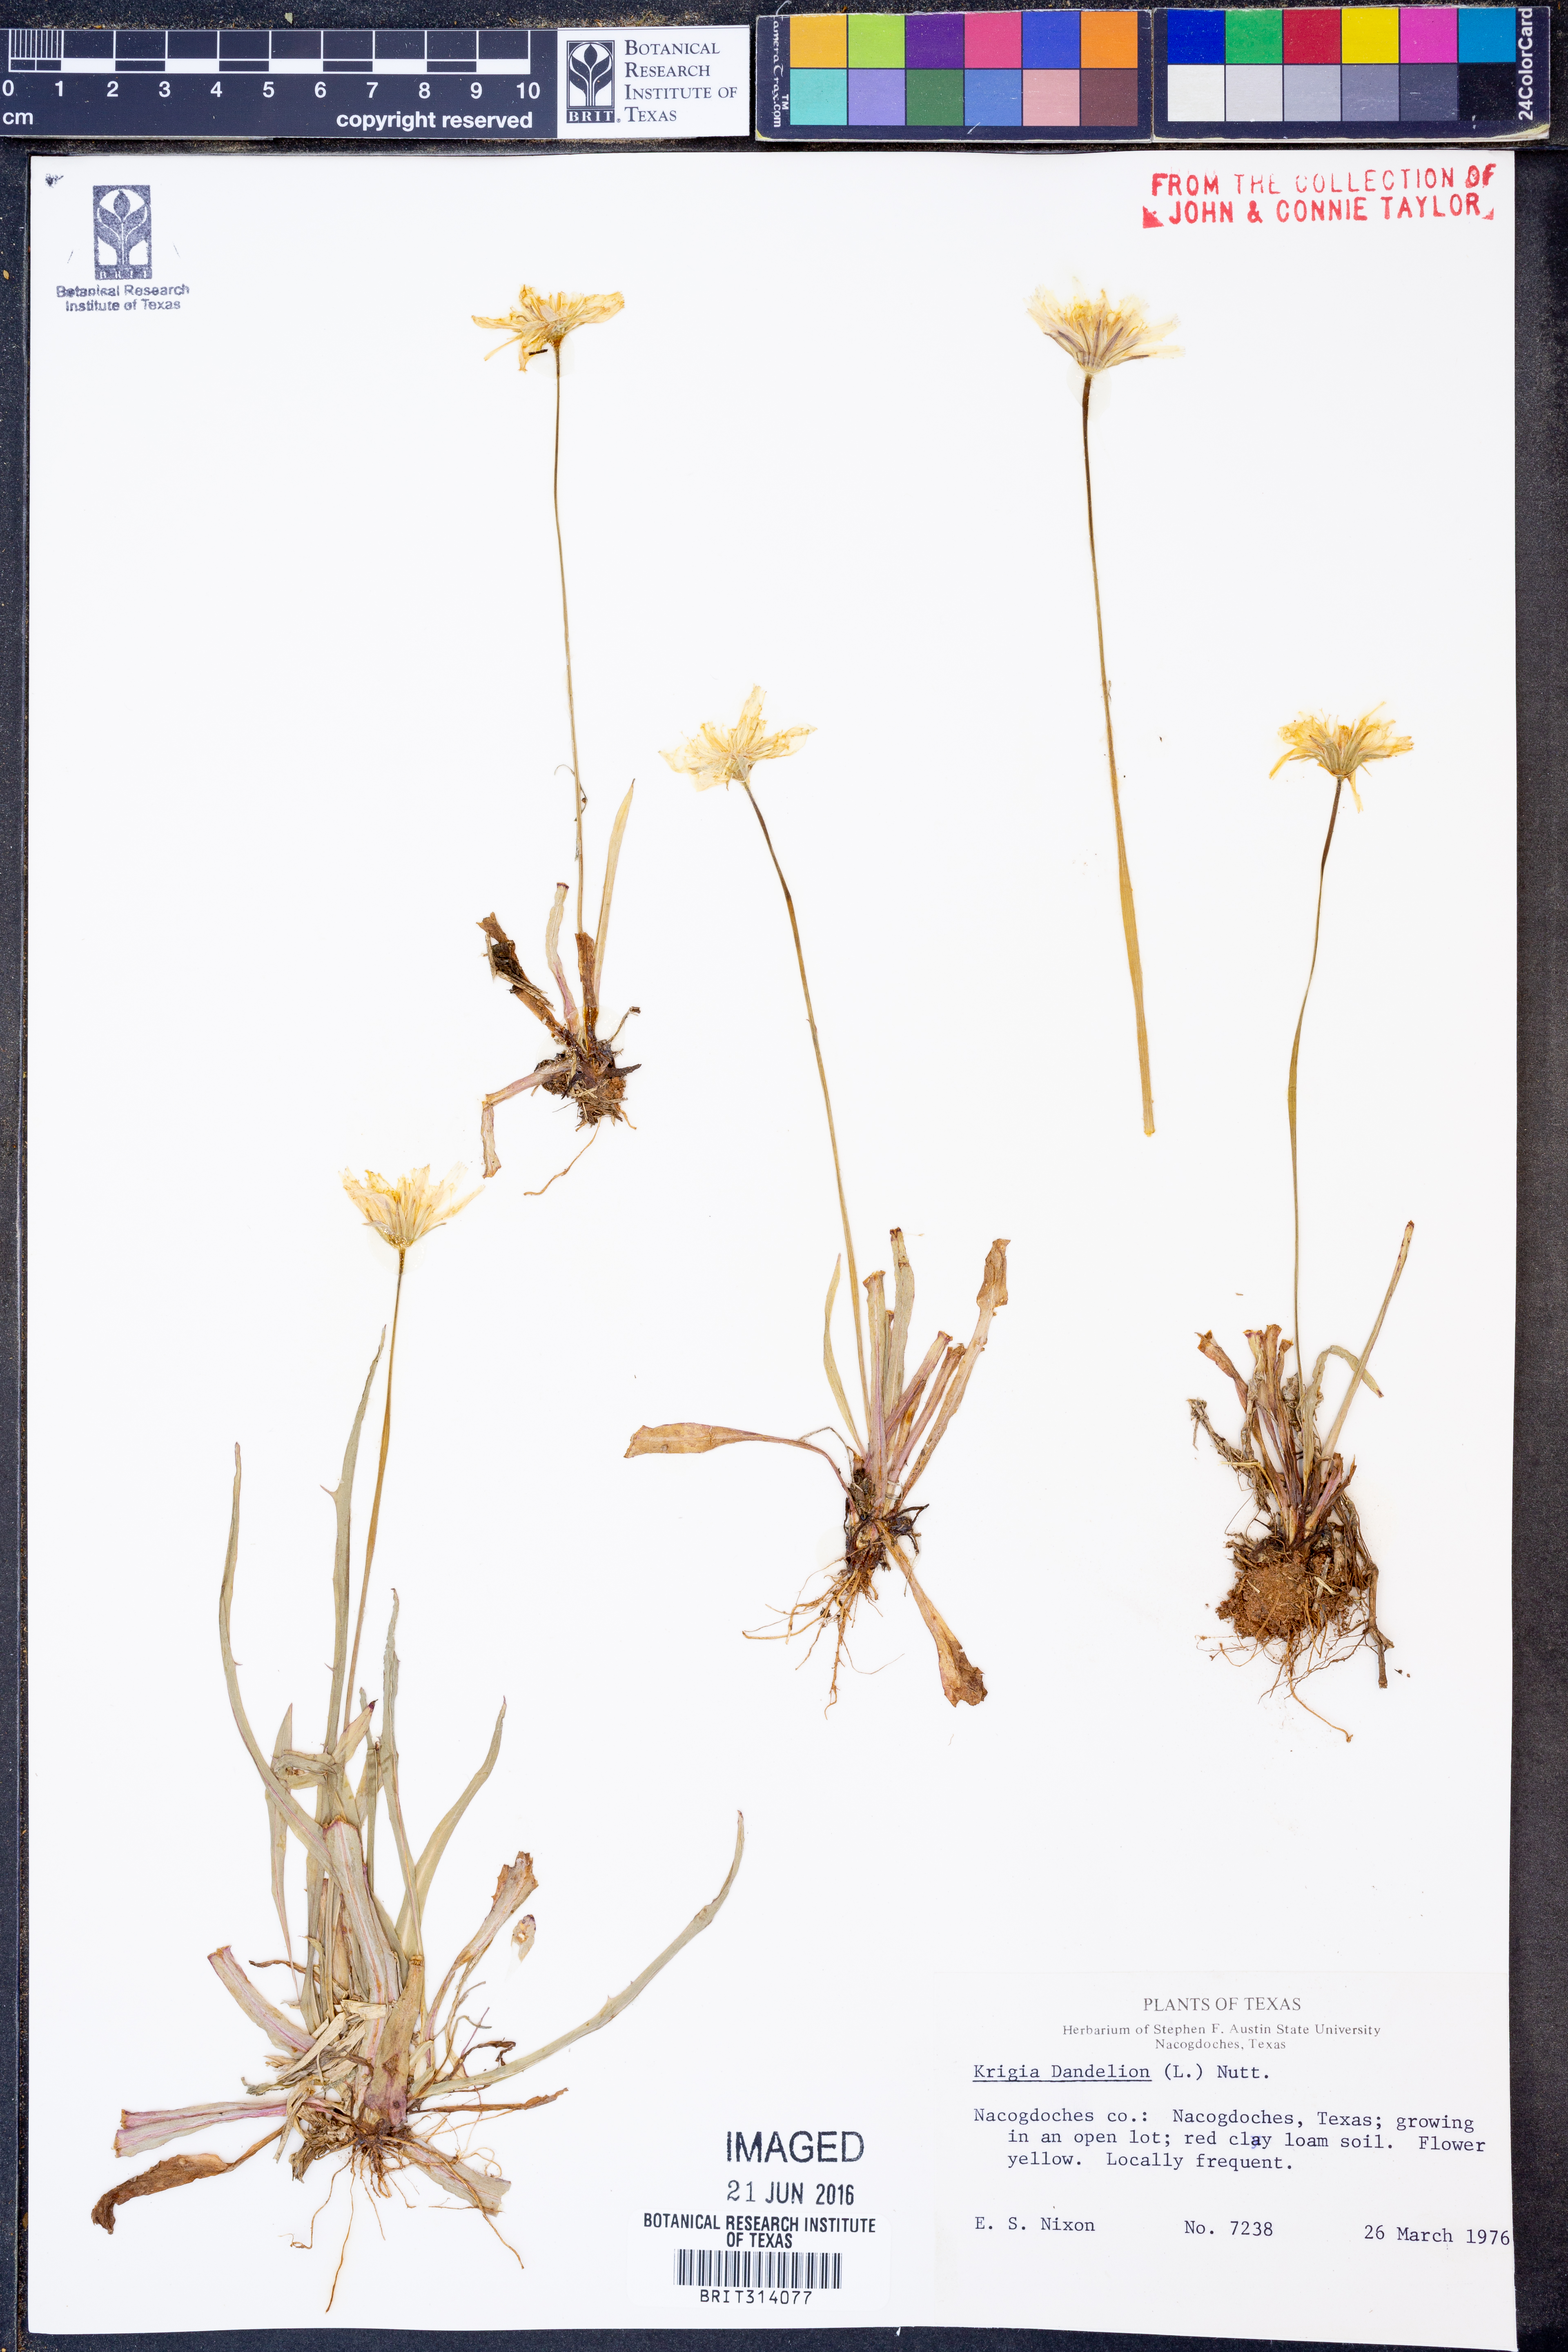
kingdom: Plantae
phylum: Tracheophyta
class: Magnoliopsida
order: Asterales
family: Asteraceae
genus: Krigia
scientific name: Krigia dandelion
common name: Colonial dwarf-dandelion
